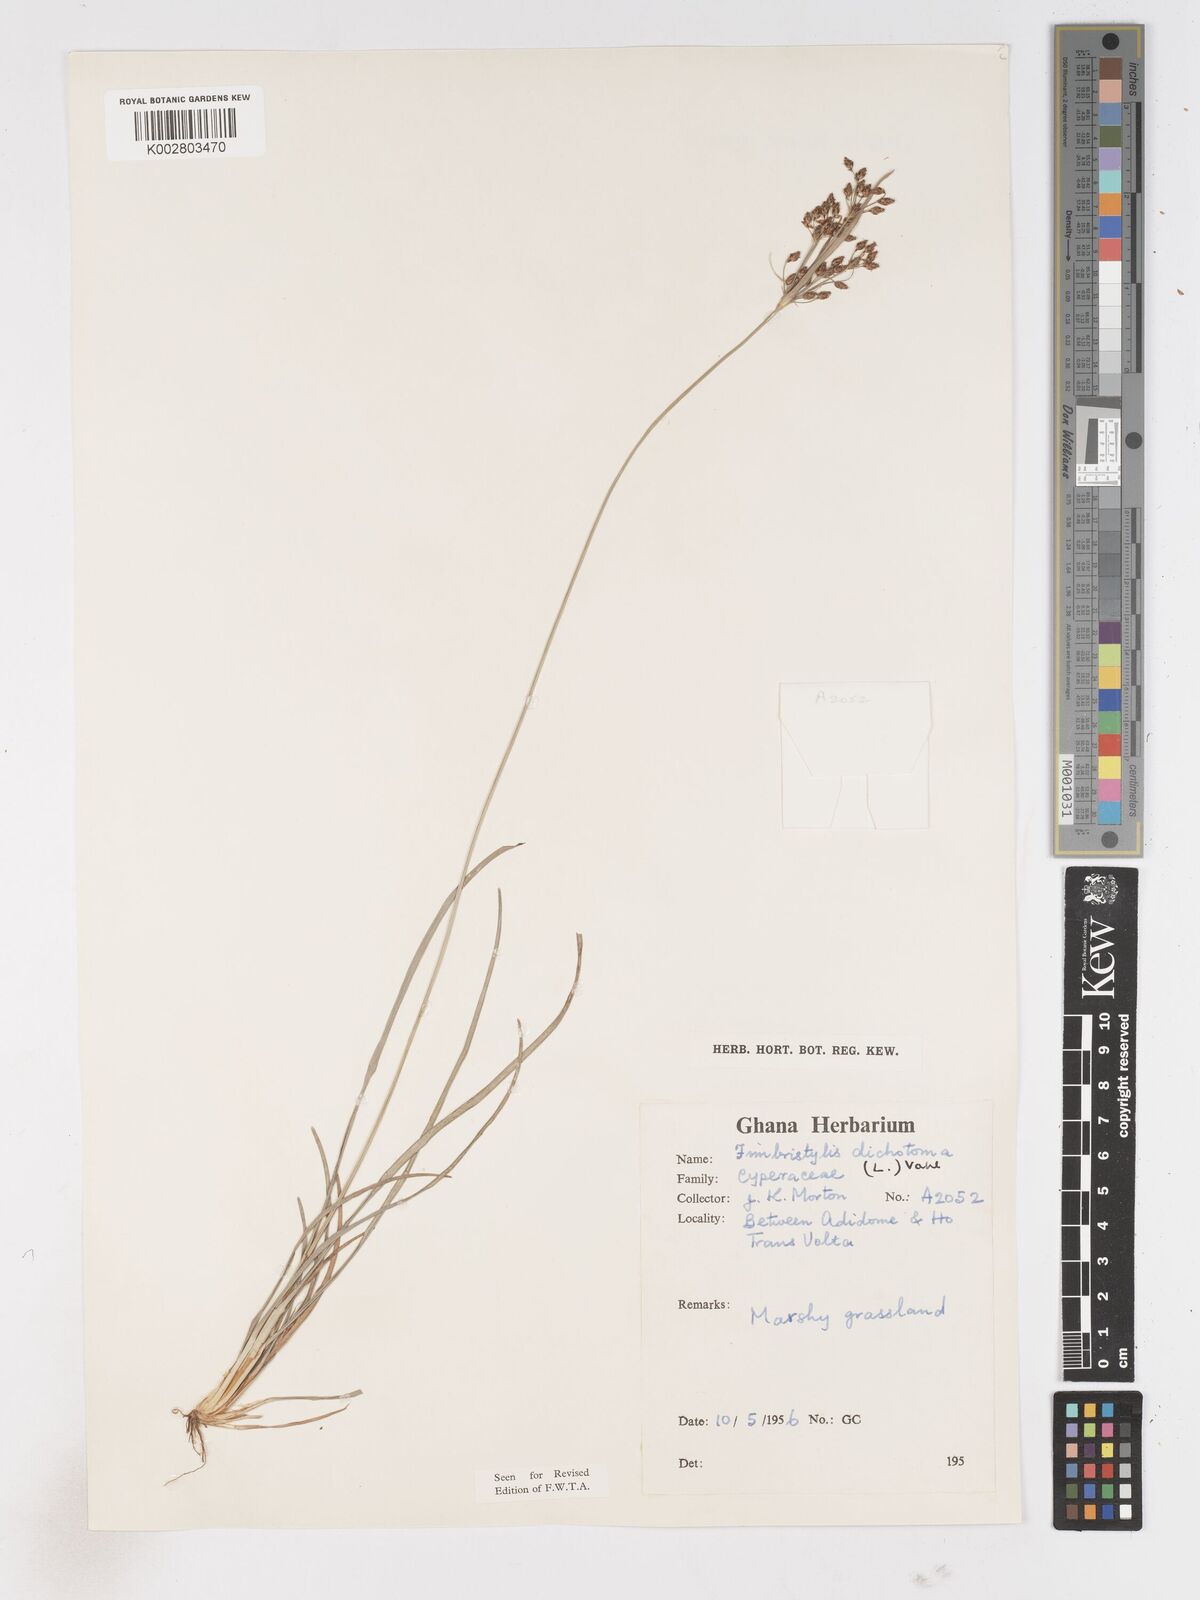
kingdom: Plantae
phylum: Tracheophyta
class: Liliopsida
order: Poales
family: Cyperaceae
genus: Fimbristylis
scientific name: Fimbristylis dichotoma
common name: Forked fimbry
